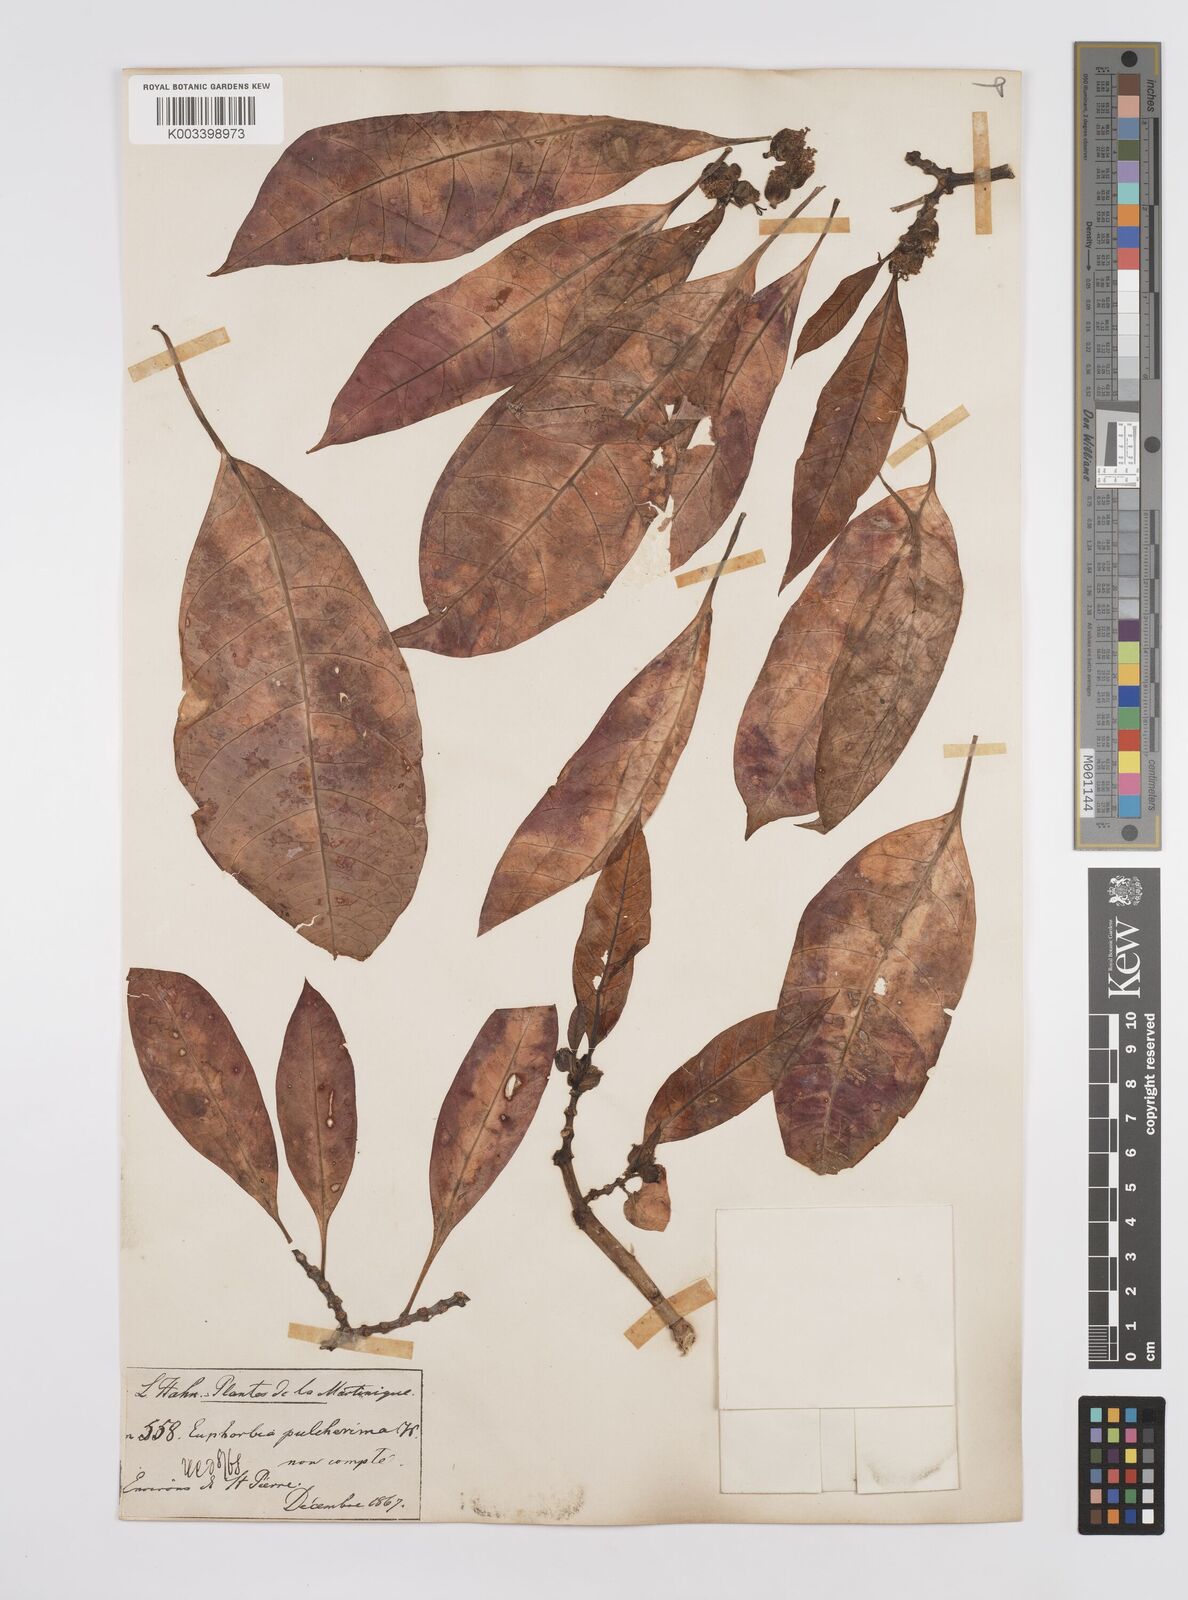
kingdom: Plantae
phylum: Tracheophyta
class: Magnoliopsida
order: Malpighiales
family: Euphorbiaceae
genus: Euphorbia
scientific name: Euphorbia
